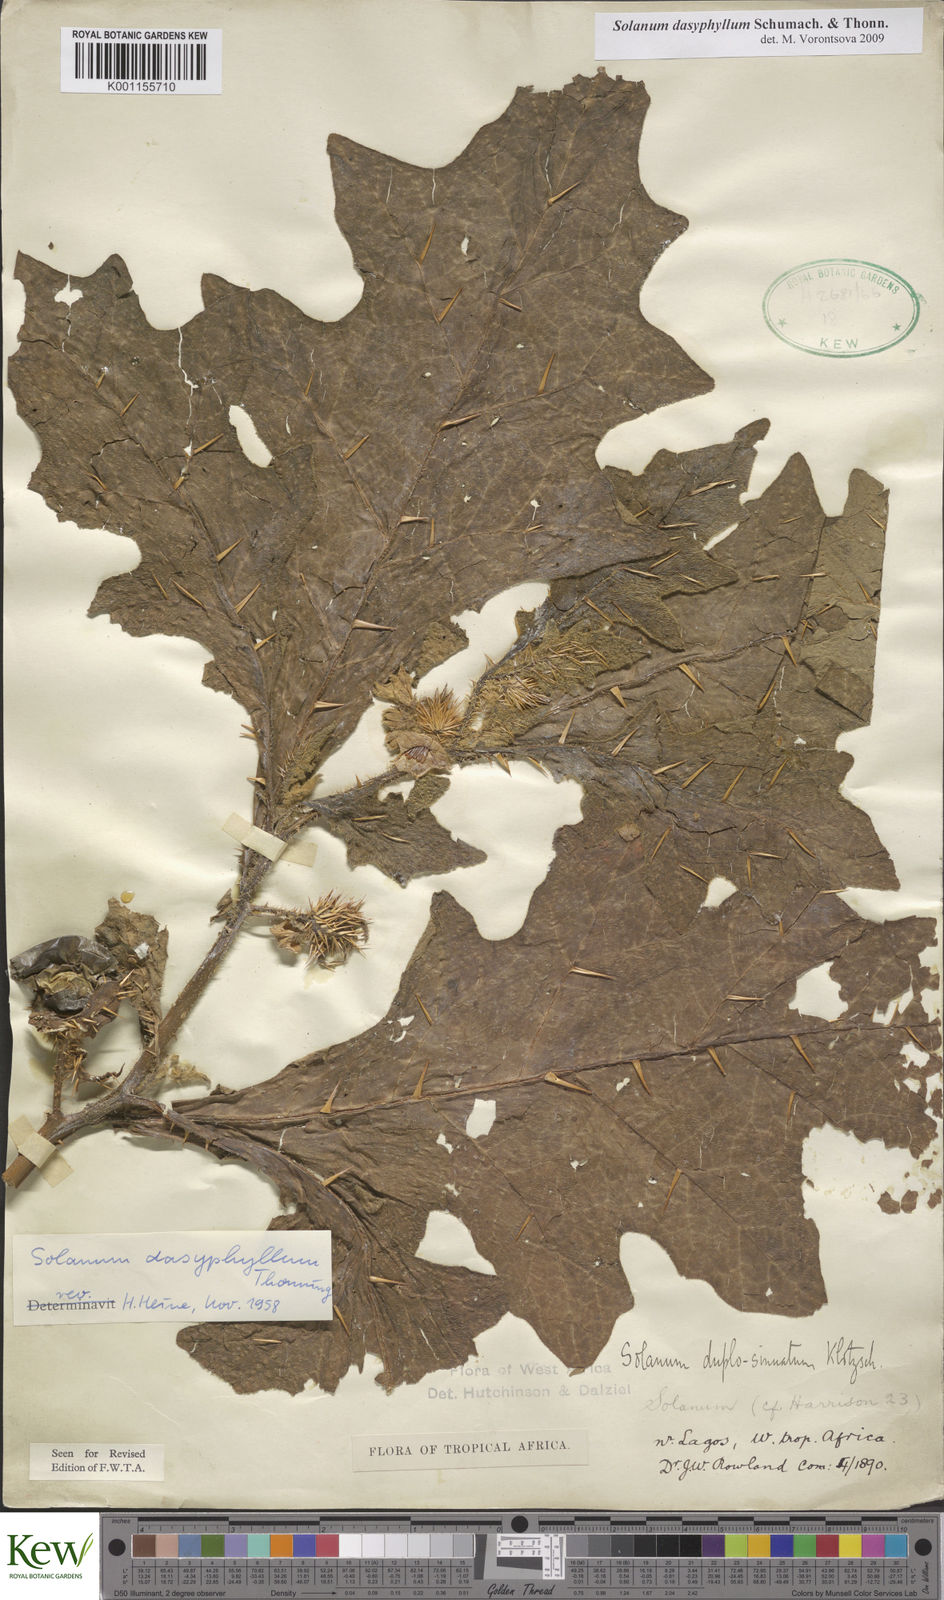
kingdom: Plantae
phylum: Tracheophyta
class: Magnoliopsida
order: Solanales
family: Solanaceae
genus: Solanum
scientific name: Solanum dasyphyllum
